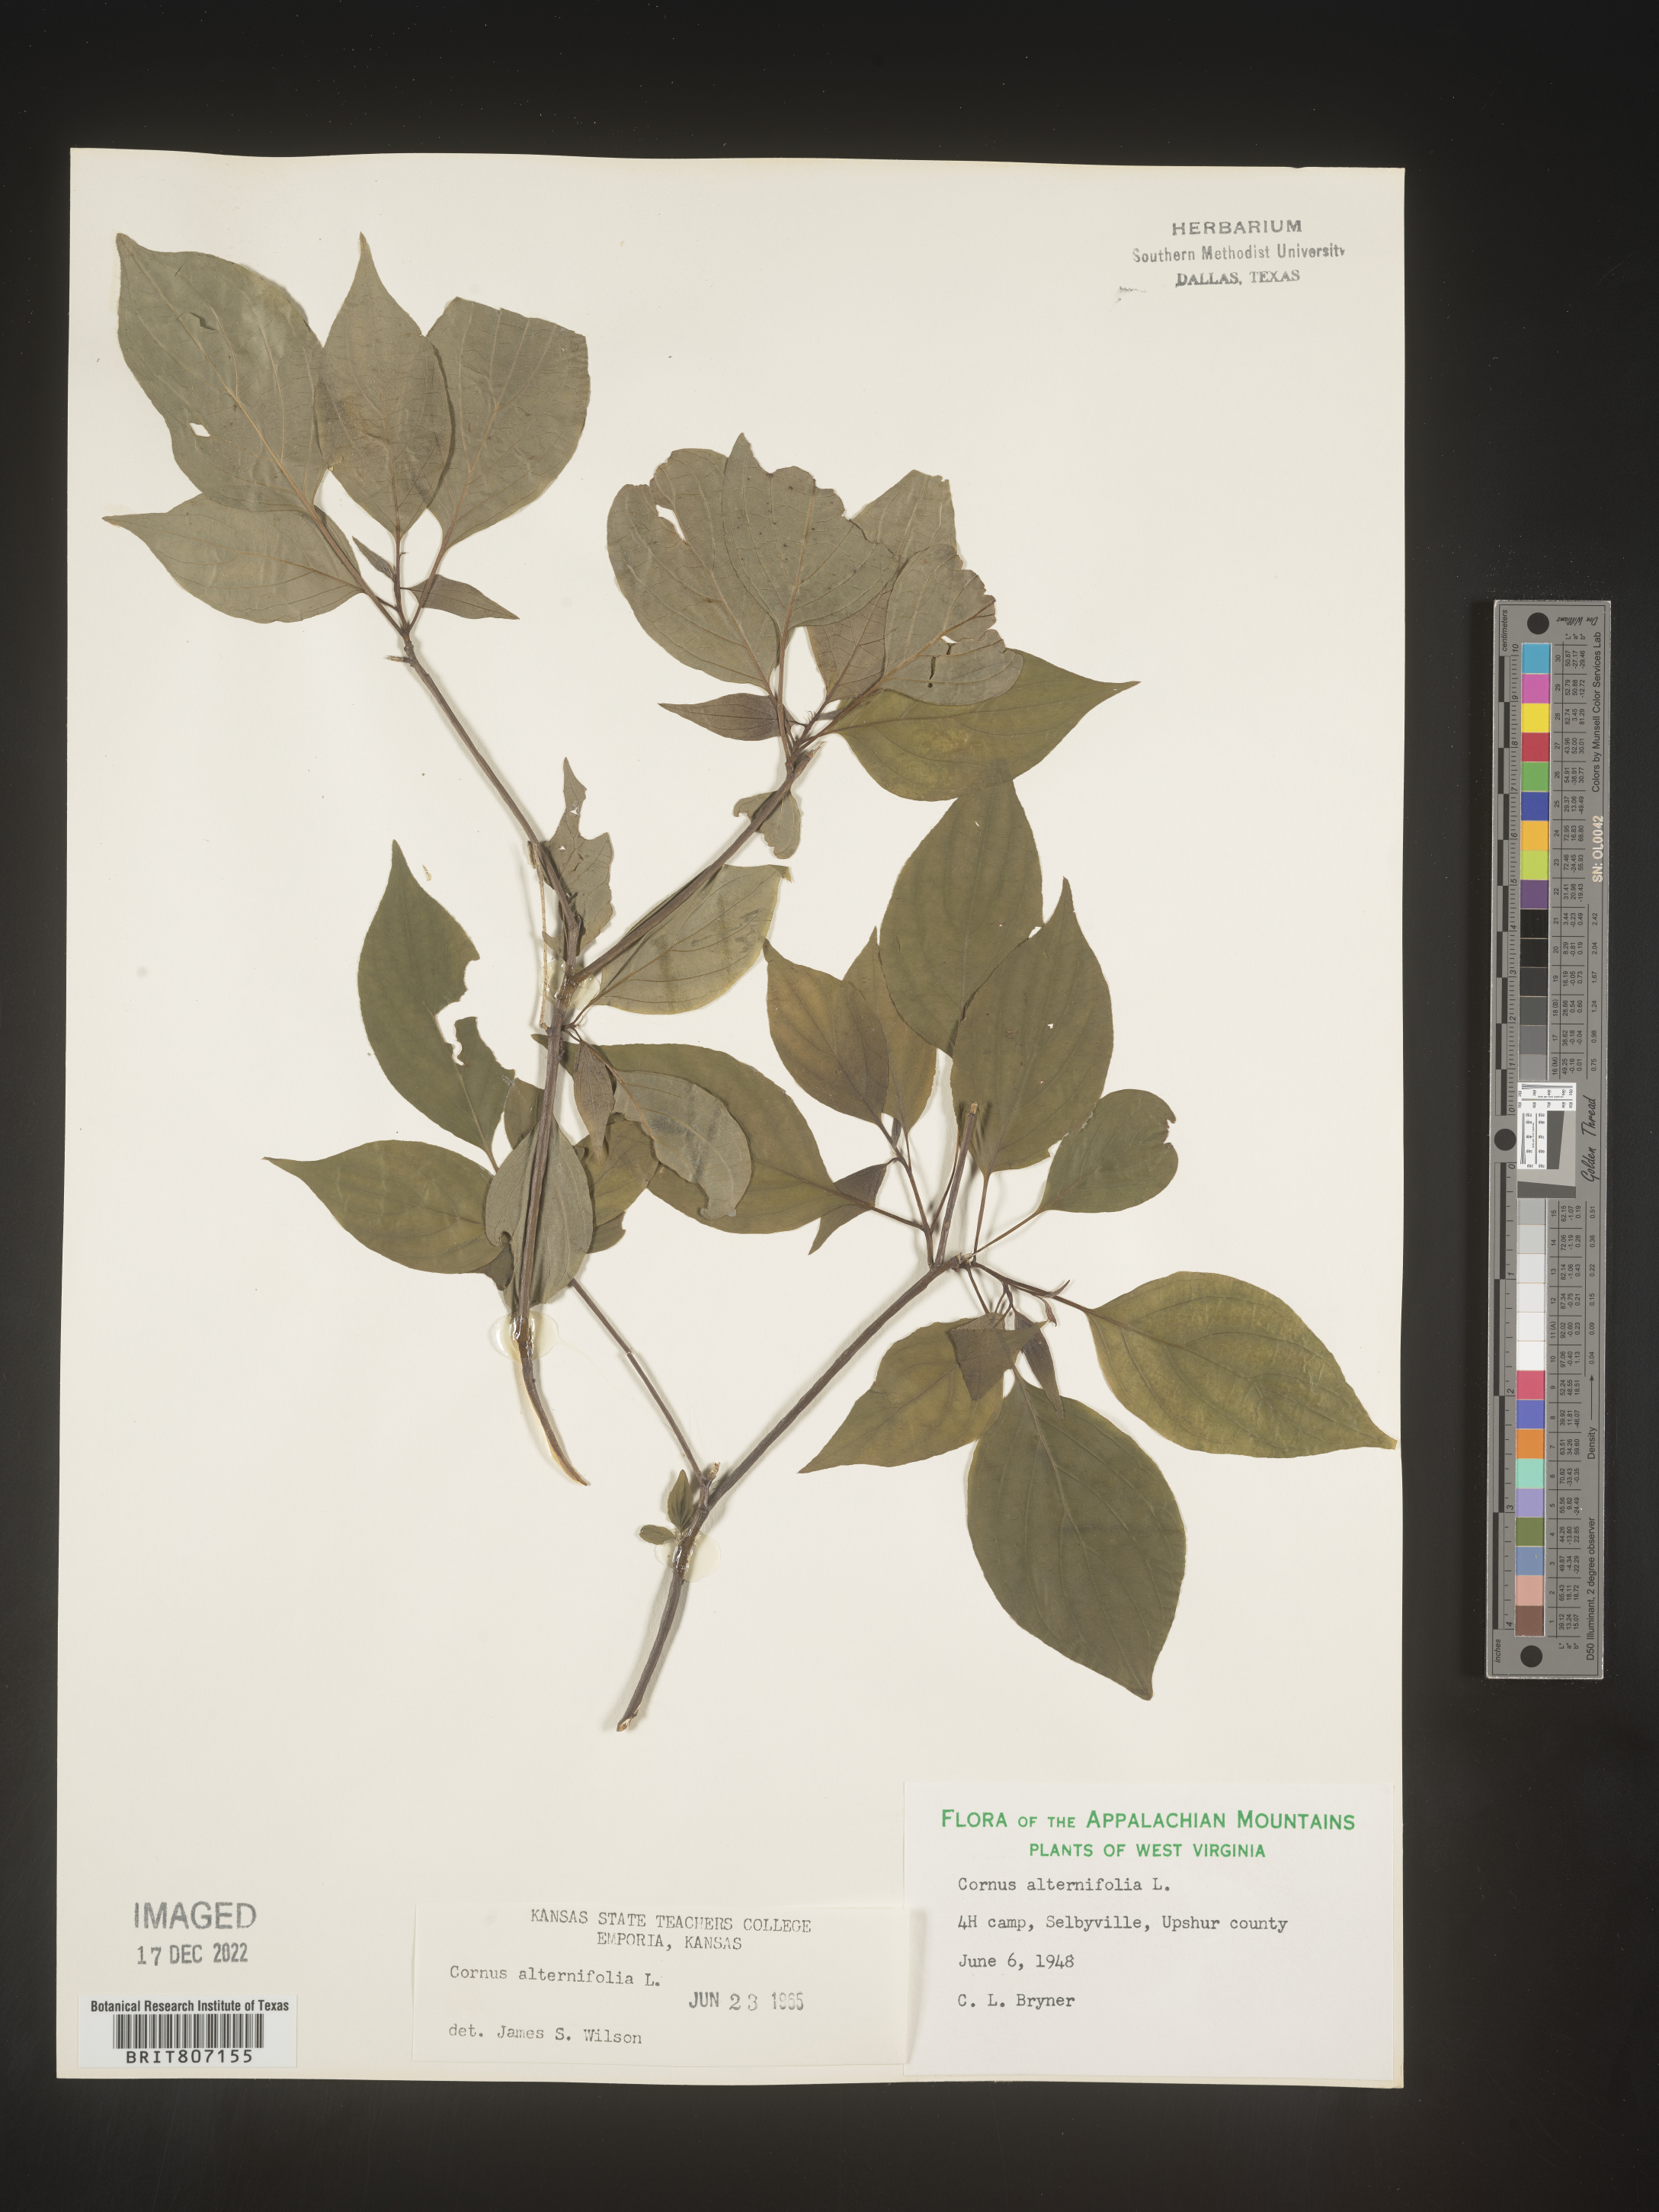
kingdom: Plantae
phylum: Tracheophyta
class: Magnoliopsida
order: Cornales
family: Cornaceae
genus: Cornus
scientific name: Cornus alternifolia
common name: Pagoda dogwood
